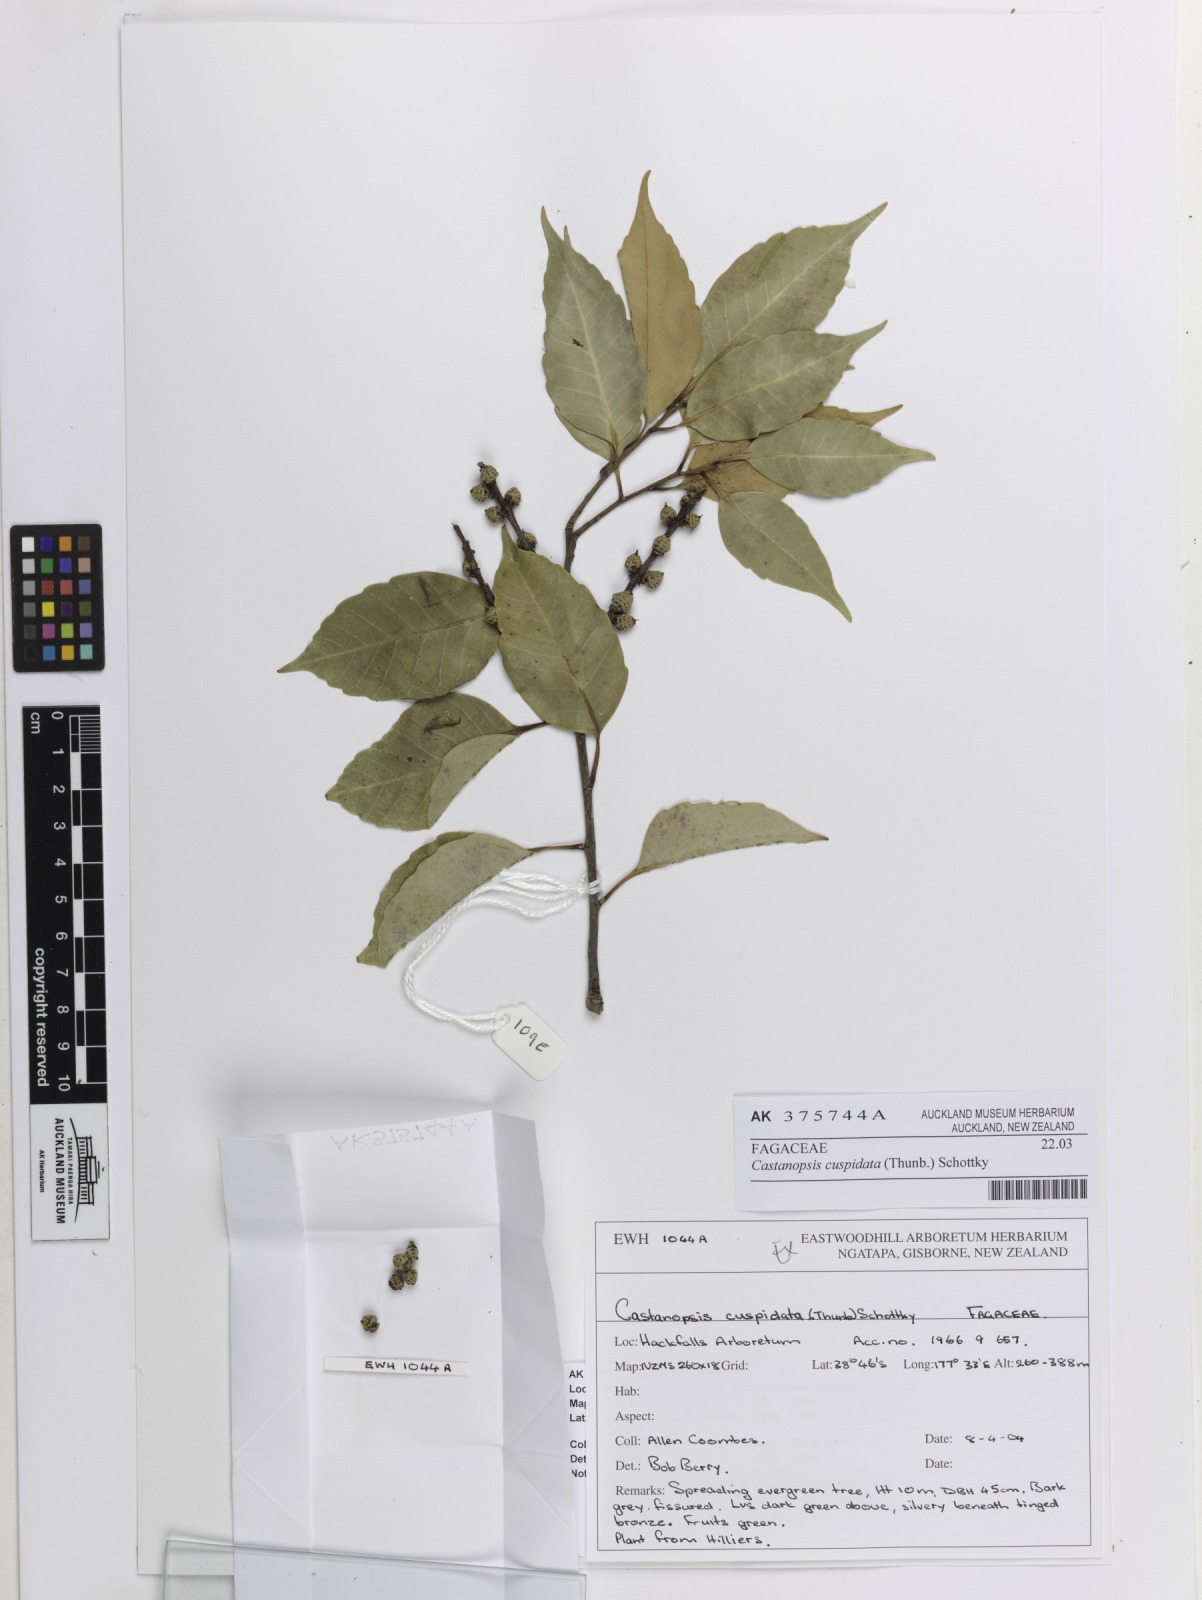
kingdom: Plantae
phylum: Tracheophyta
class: Magnoliopsida
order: Fagales
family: Fagaceae
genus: Castanopsis
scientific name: Castanopsis cuspidata
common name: Japanese chinquapin
